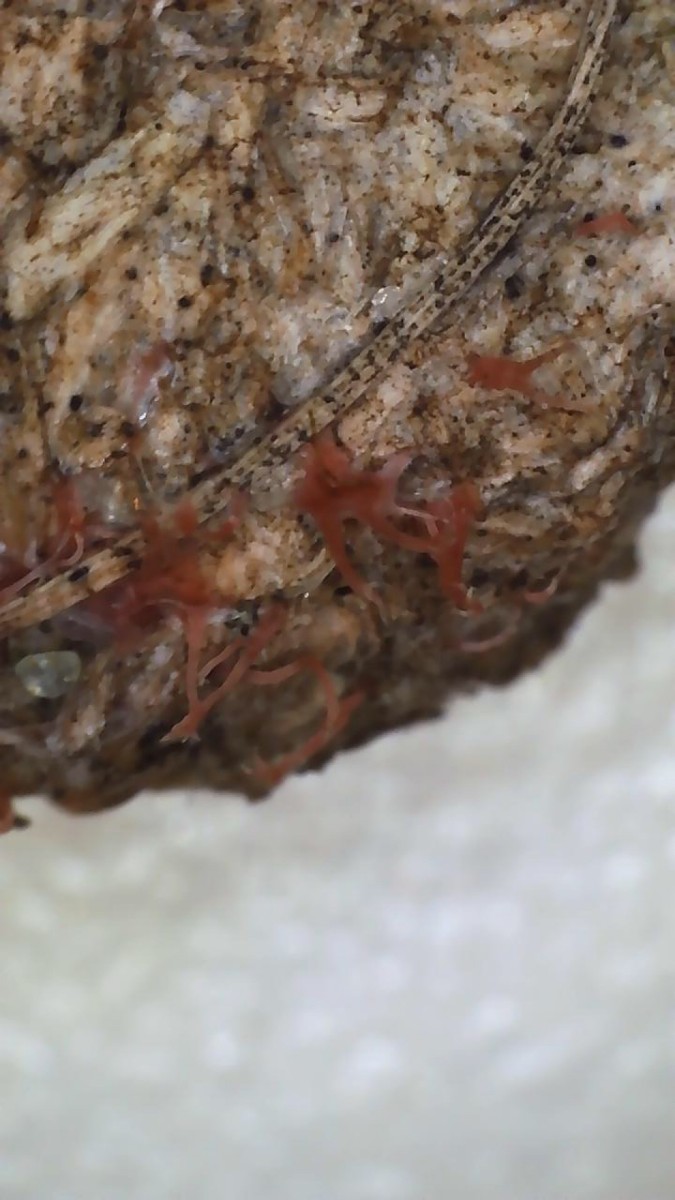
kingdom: Fungi
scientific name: Fungi
